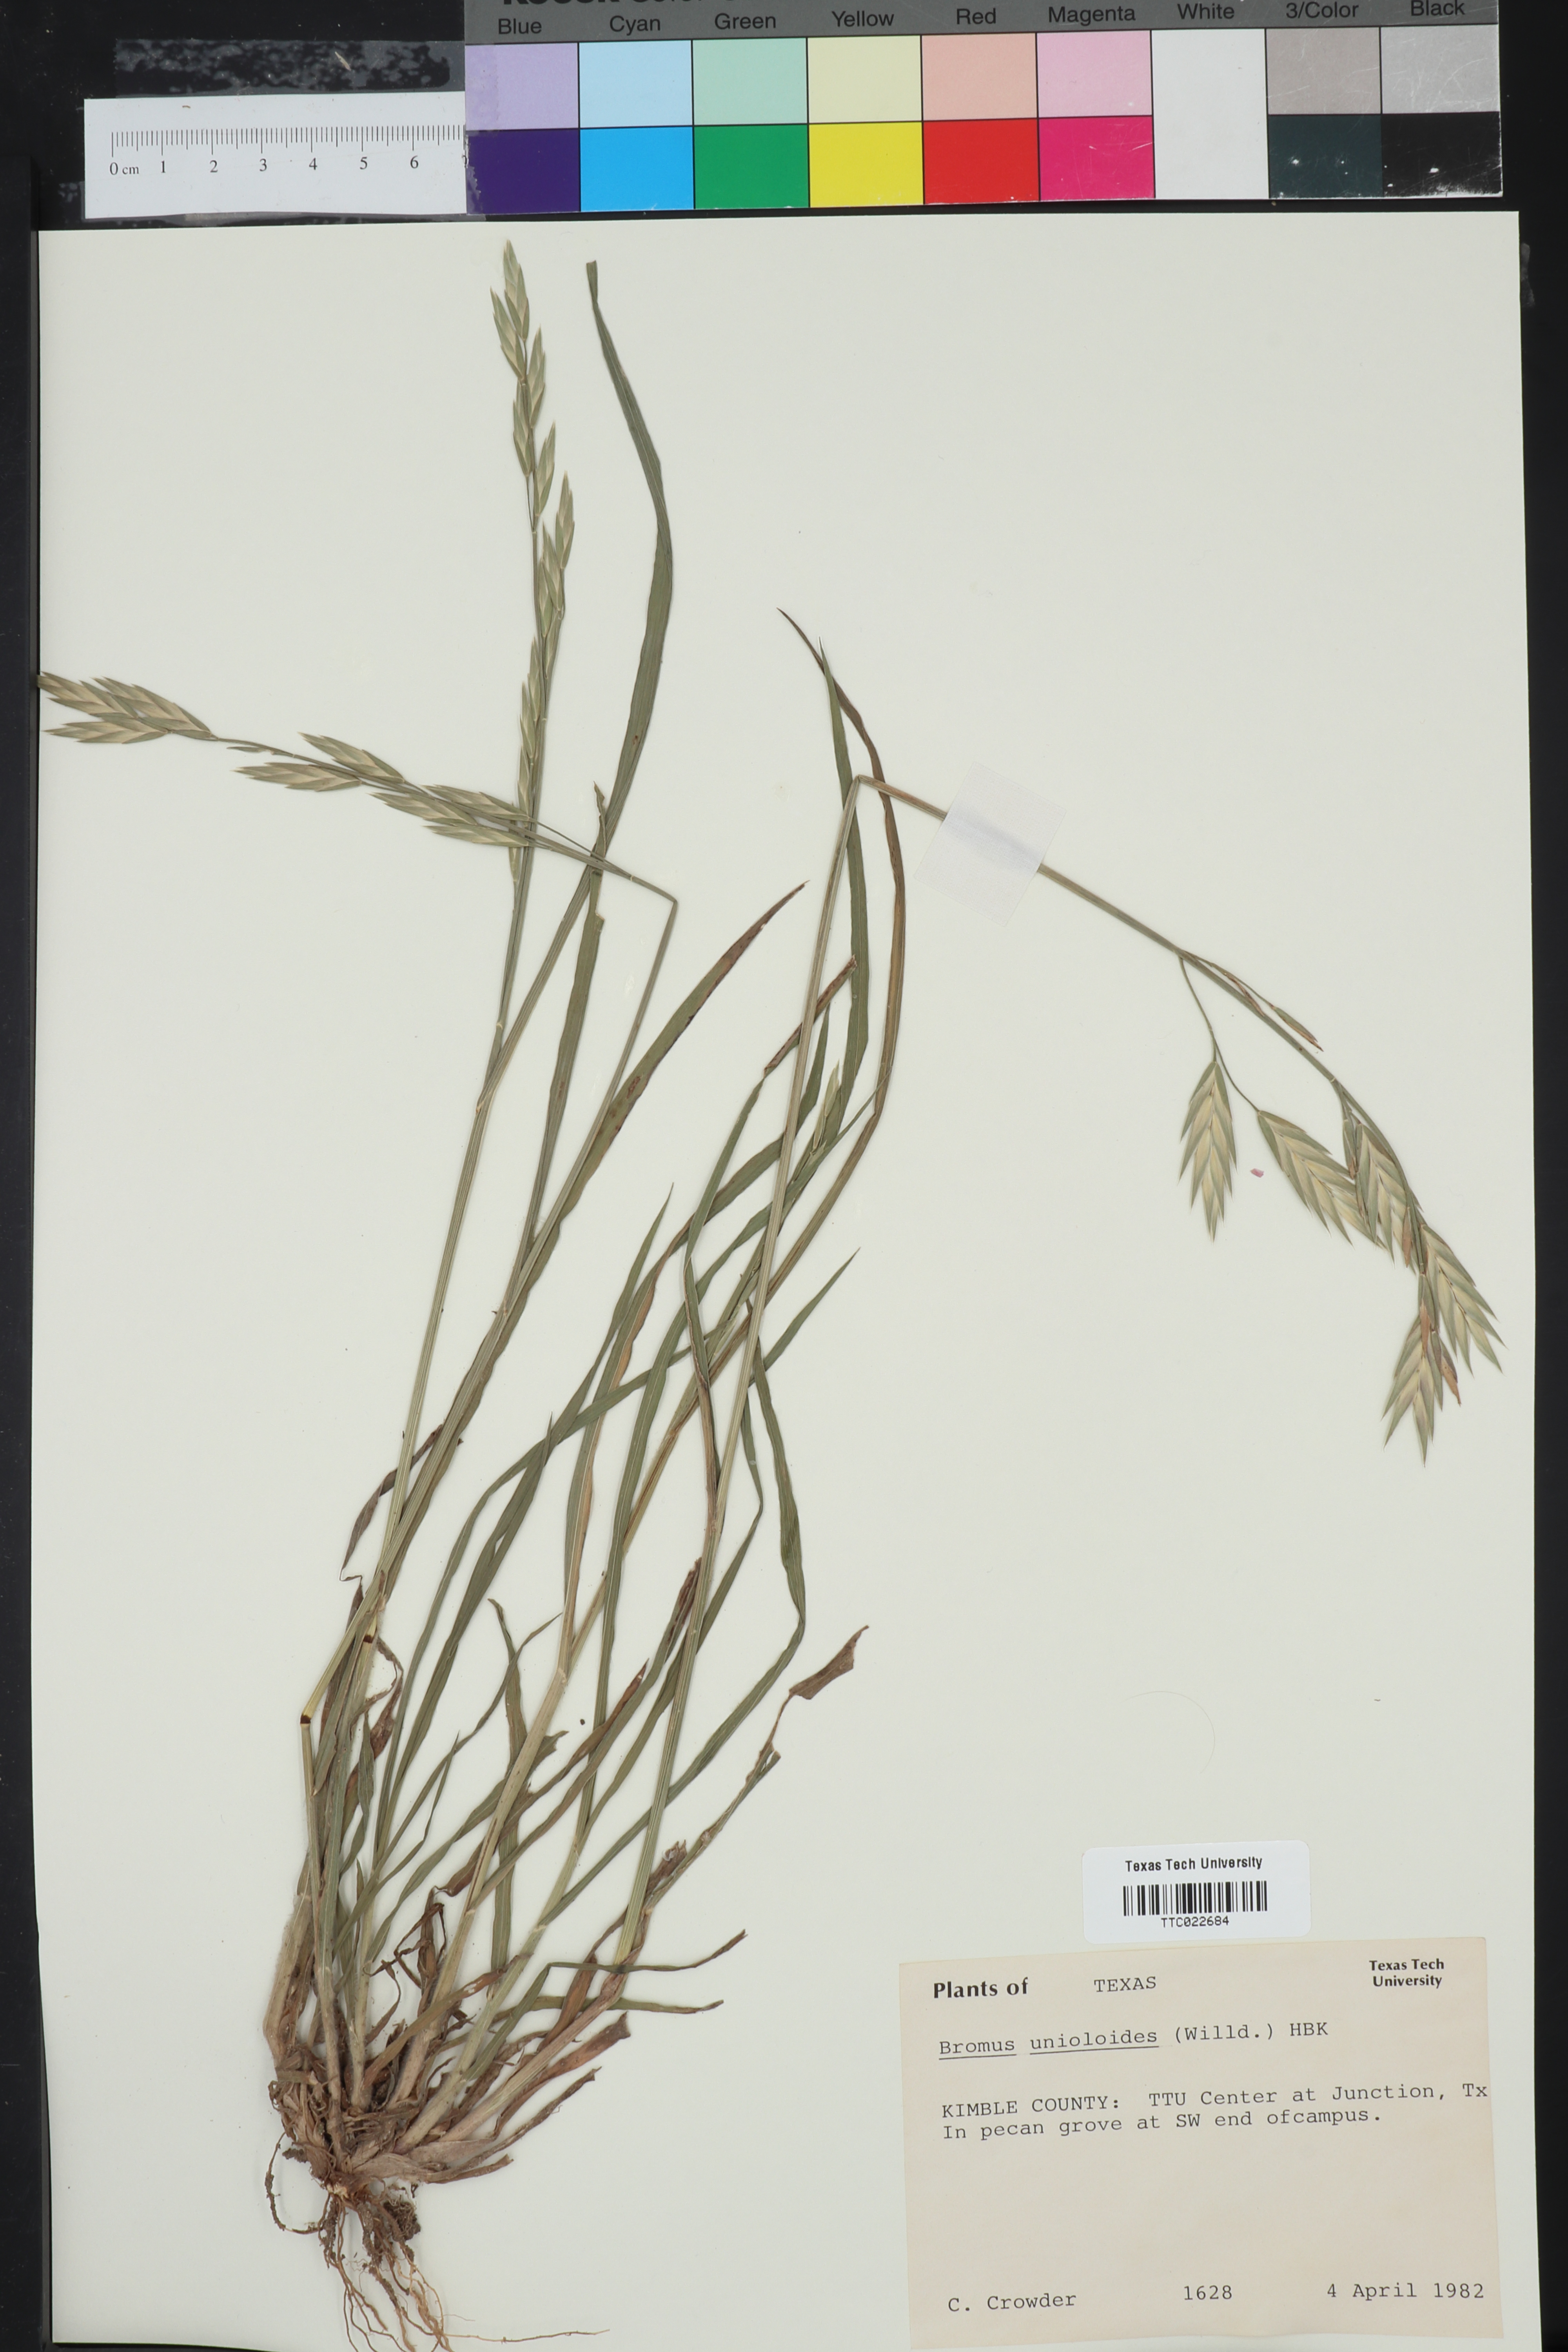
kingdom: Plantae
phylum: Tracheophyta
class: Liliopsida
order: Poales
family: Poaceae
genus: Bromus
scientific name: Bromus catharticus
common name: Rescuegrass
